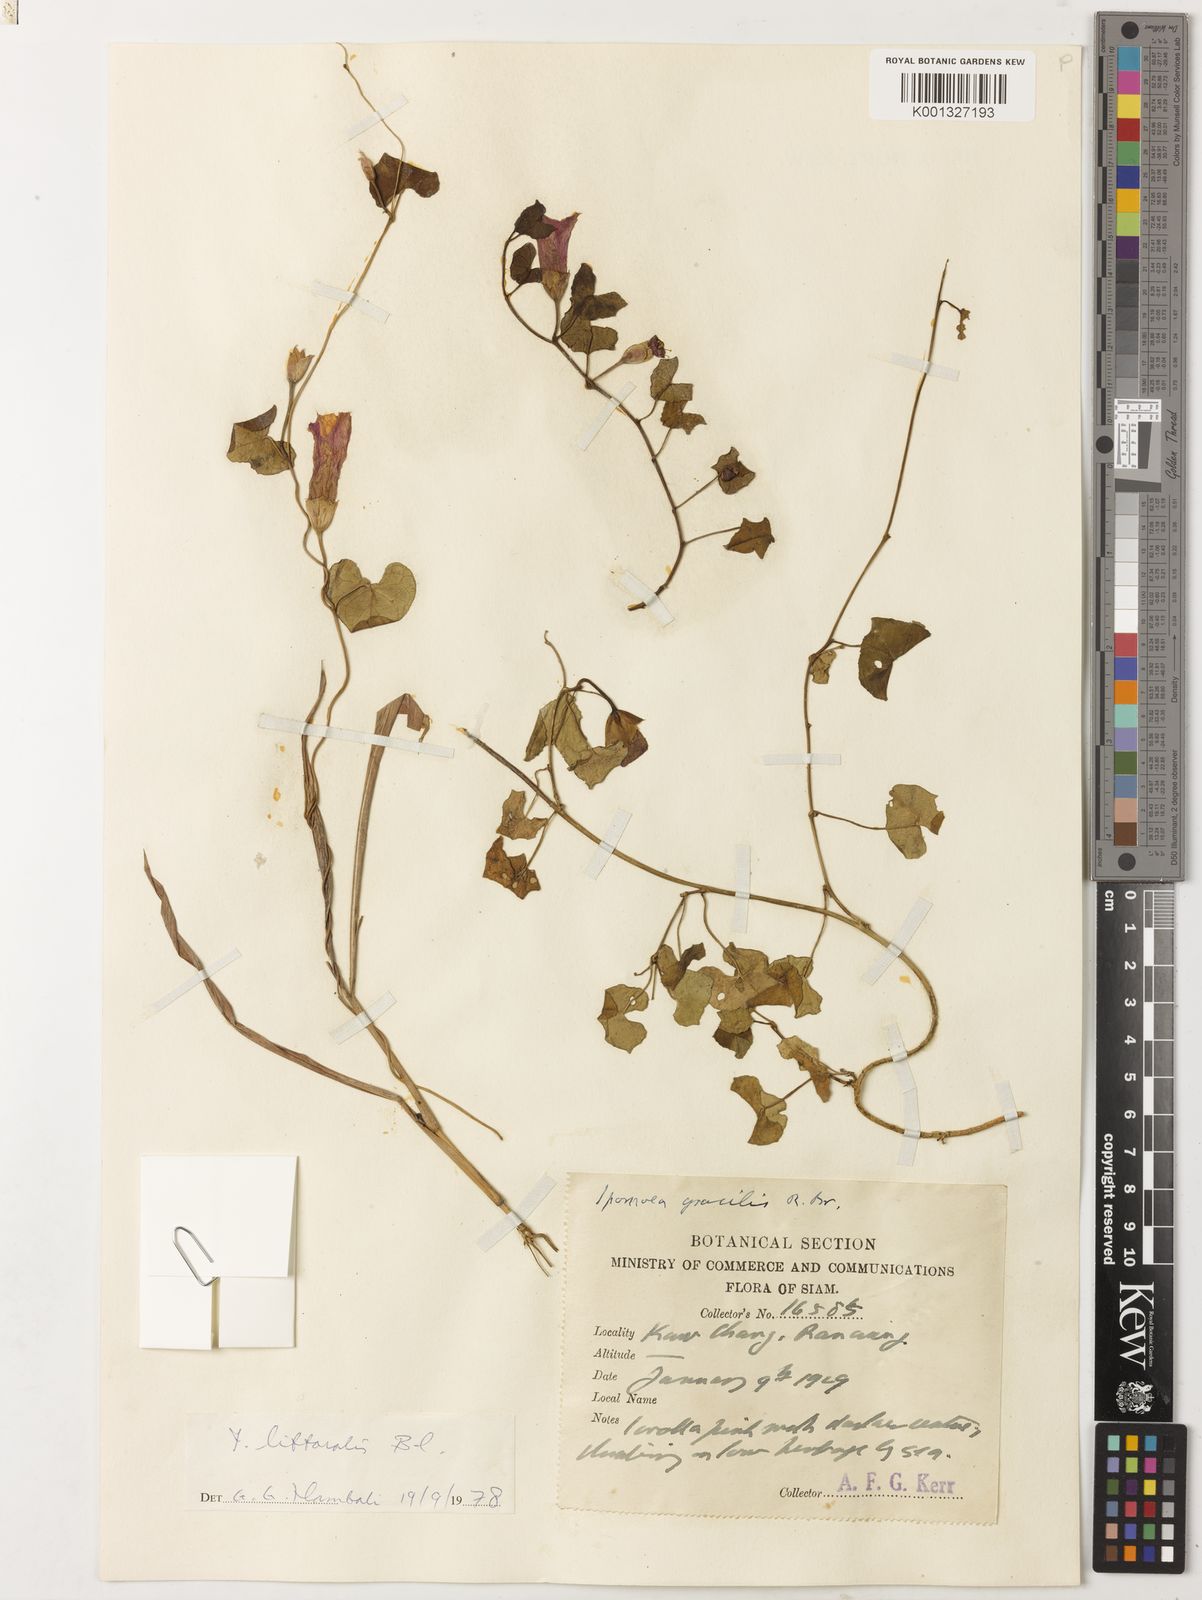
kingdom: Plantae
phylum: Tracheophyta
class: Magnoliopsida
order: Solanales
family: Convolvulaceae
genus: Ipomoea
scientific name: Ipomoea littoralis
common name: Coastal morning glory
